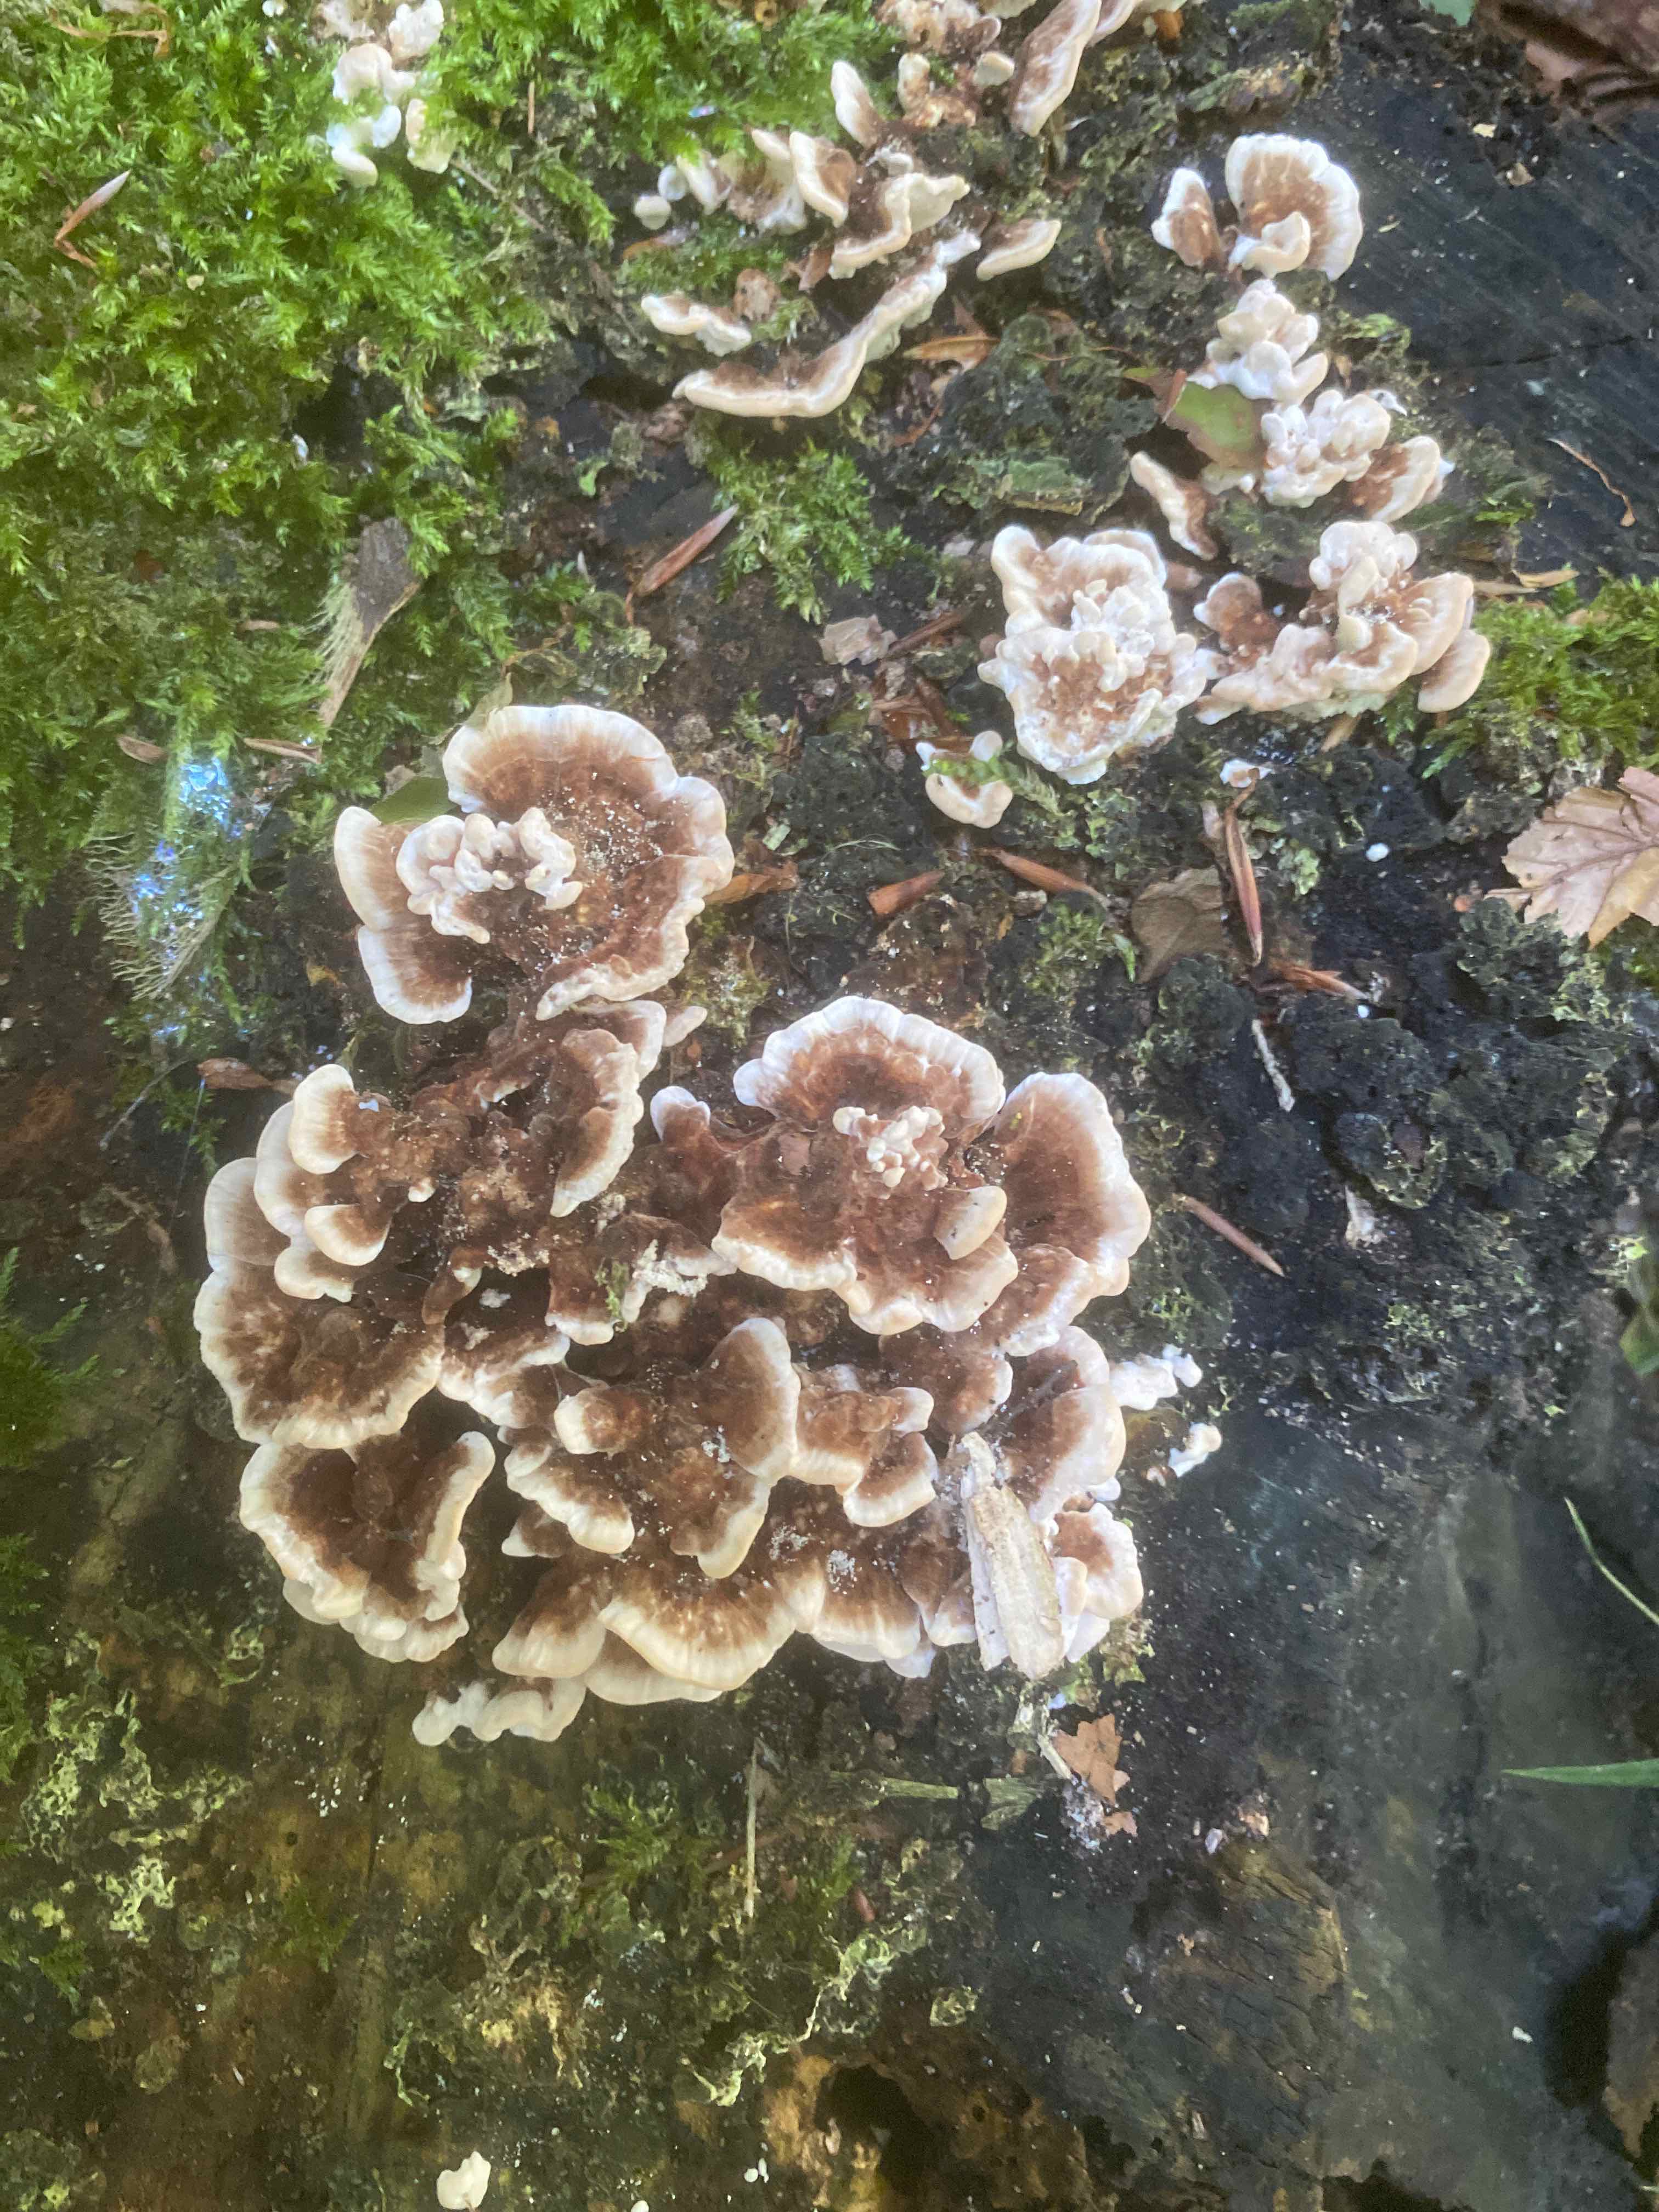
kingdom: Fungi
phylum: Basidiomycota
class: Agaricomycetes
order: Polyporales
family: Polyporaceae
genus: Trametes
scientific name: Trametes versicolor
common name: broget læderporesvamp
